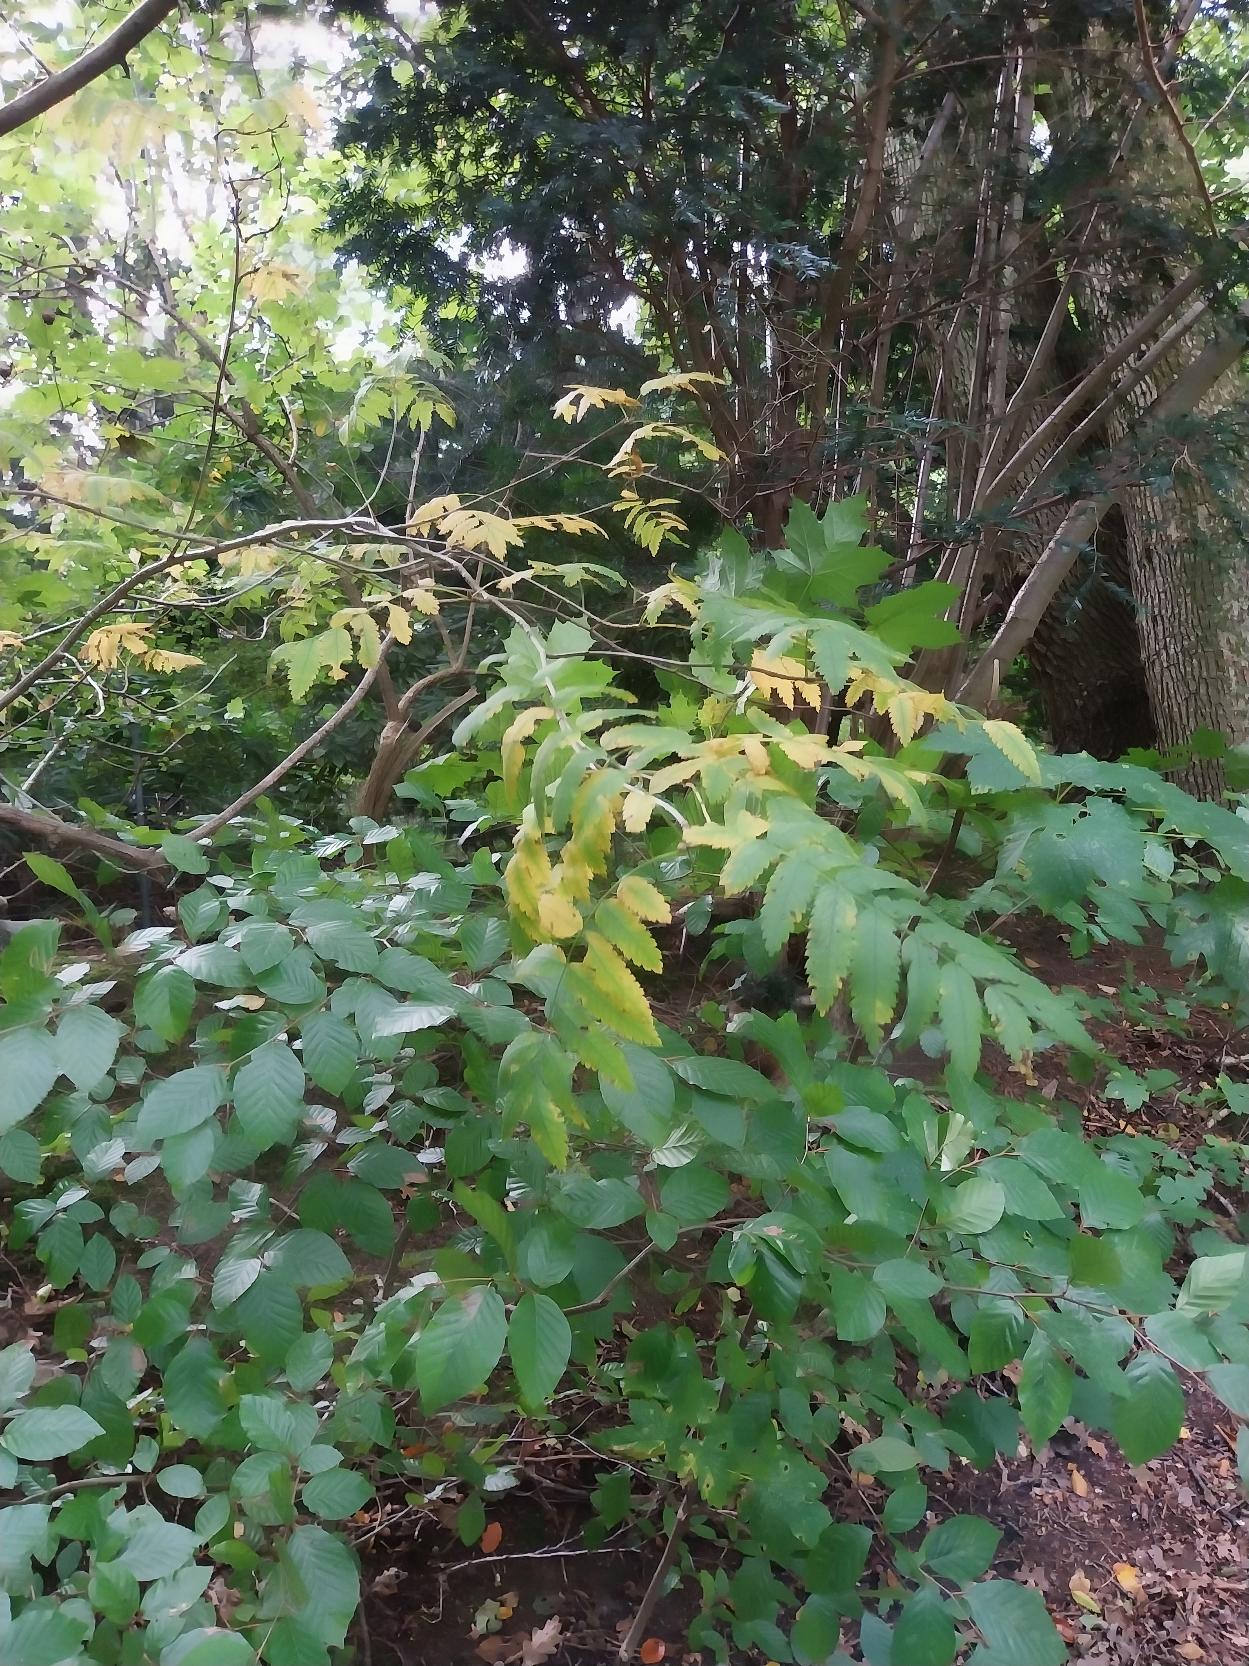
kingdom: Plantae
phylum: Tracheophyta
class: Magnoliopsida
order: Rosales
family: Rosaceae
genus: Sorbus
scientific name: Sorbus aucuparia
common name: Almindelig røn
